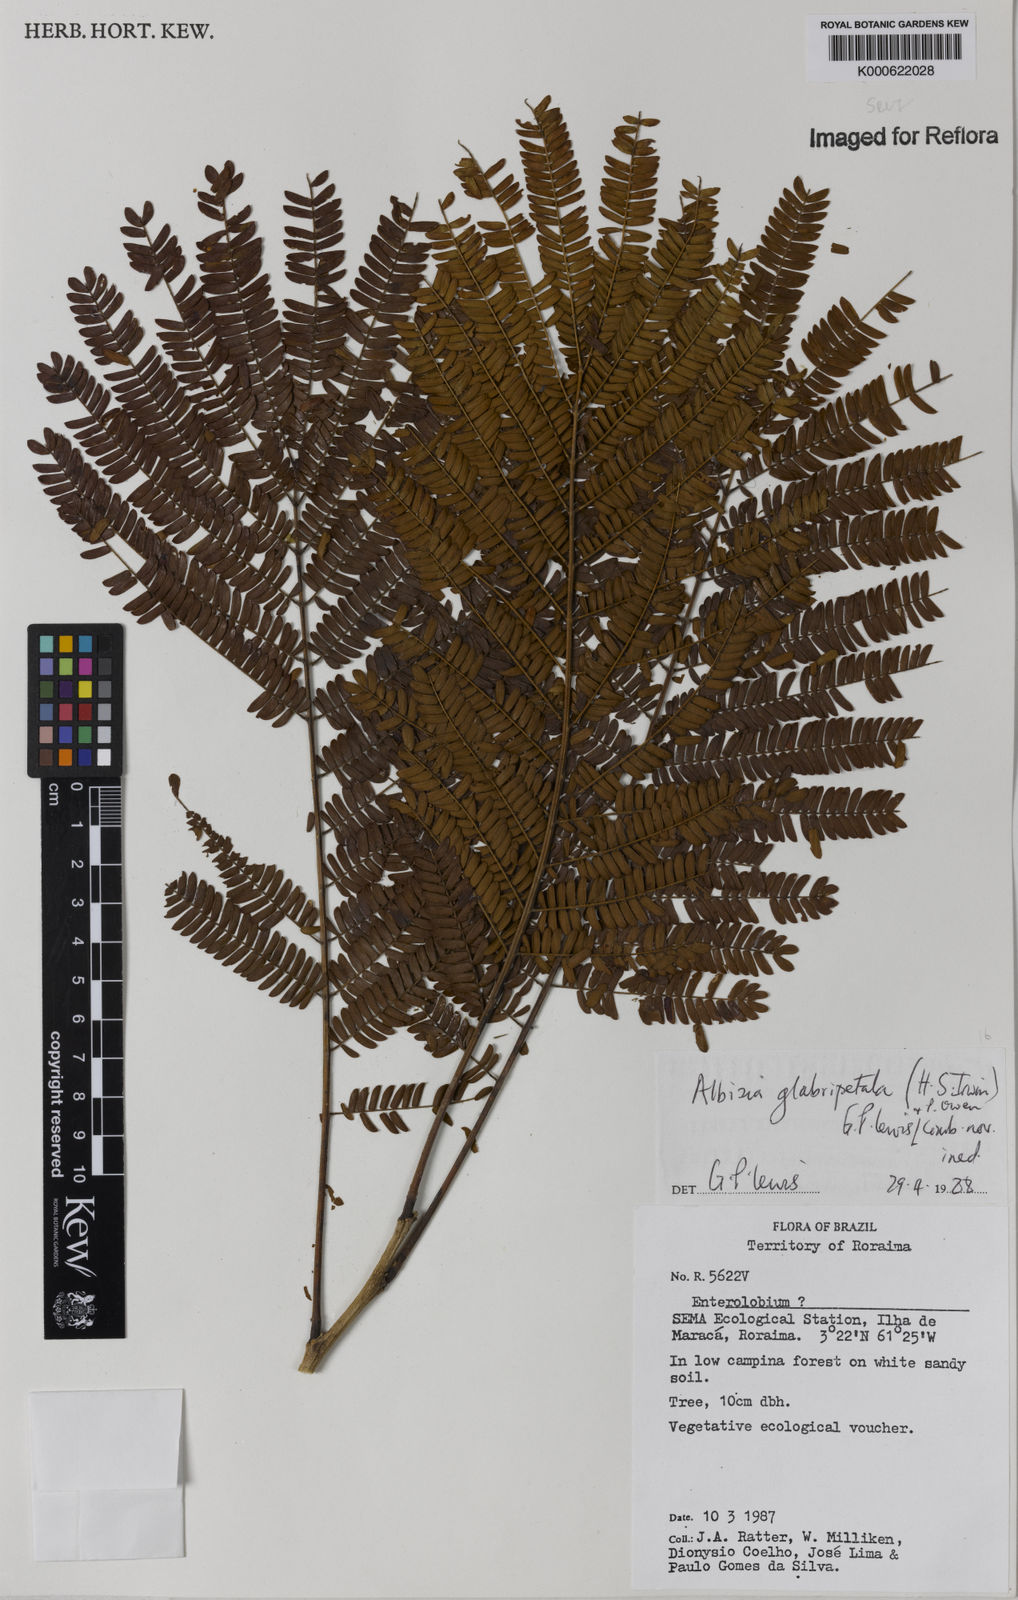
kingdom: Plantae
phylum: Tracheophyta
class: Magnoliopsida
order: Fabales
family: Fabaceae
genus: Albizia
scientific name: Albizia glabripetala
